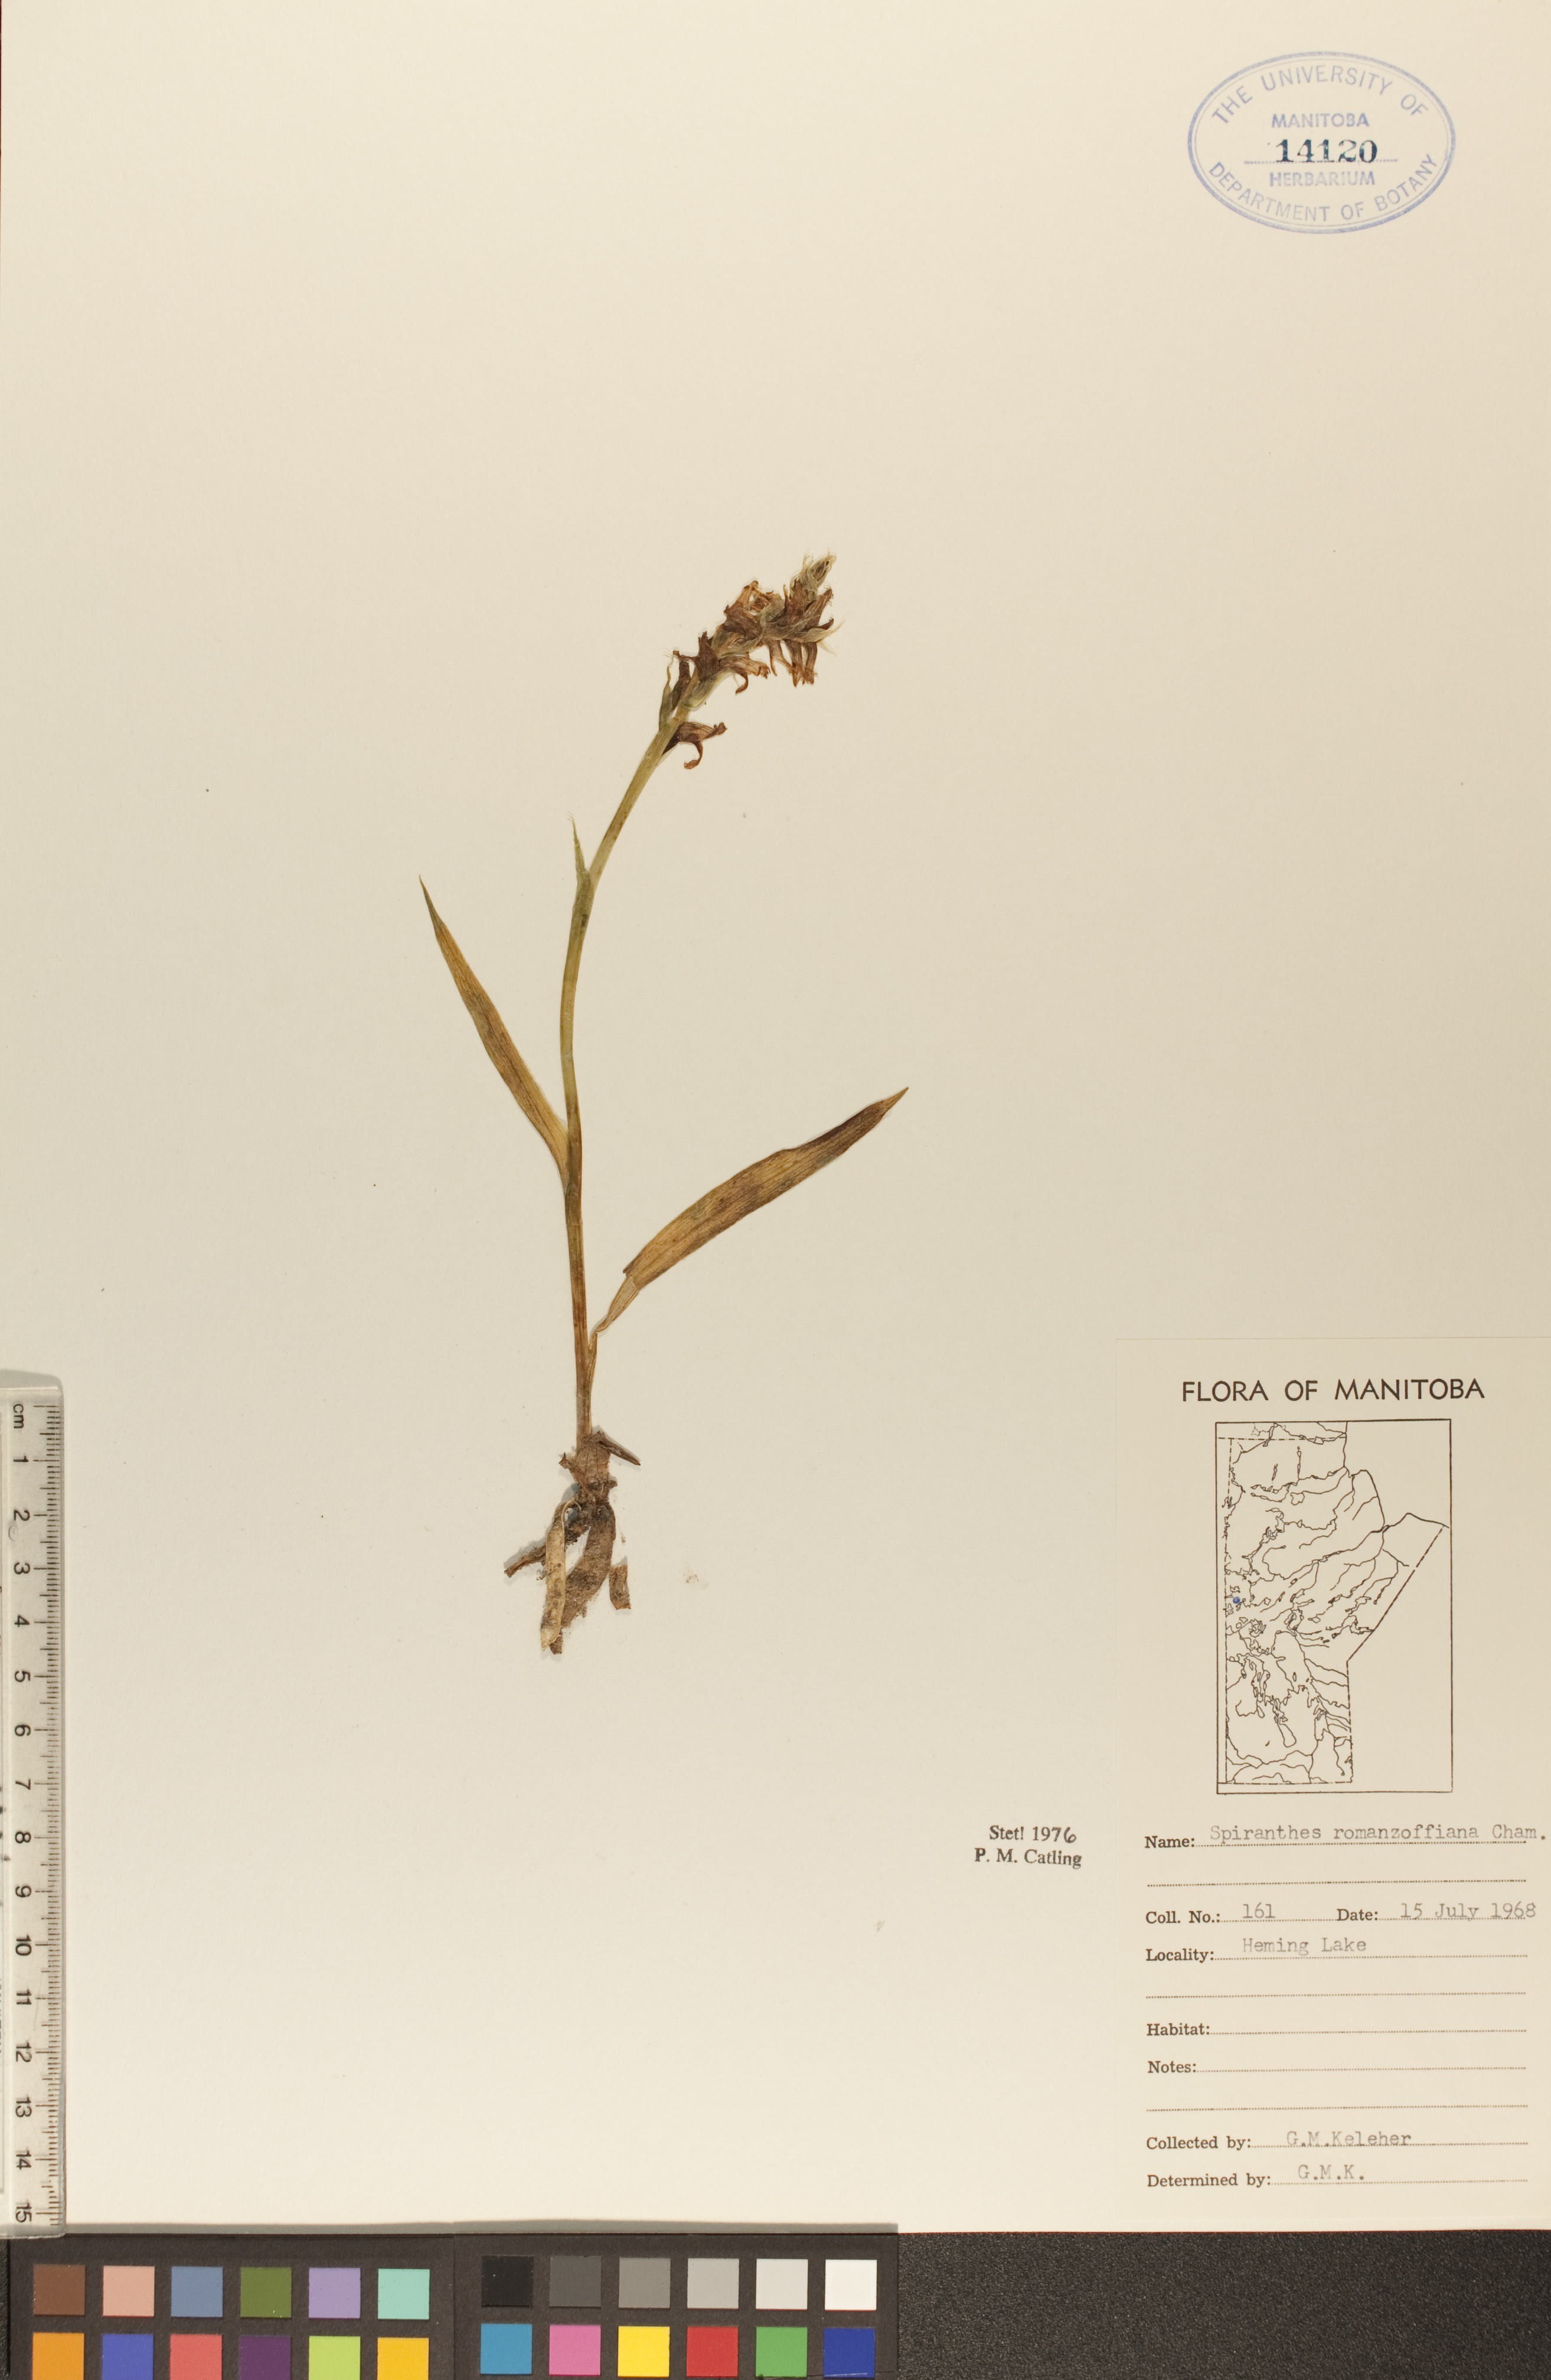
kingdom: Plantae
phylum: Tracheophyta
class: Liliopsida
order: Asparagales
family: Orchidaceae
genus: Spiranthes
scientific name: Spiranthes romanzoffiana
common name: Irish lady's-tresses
